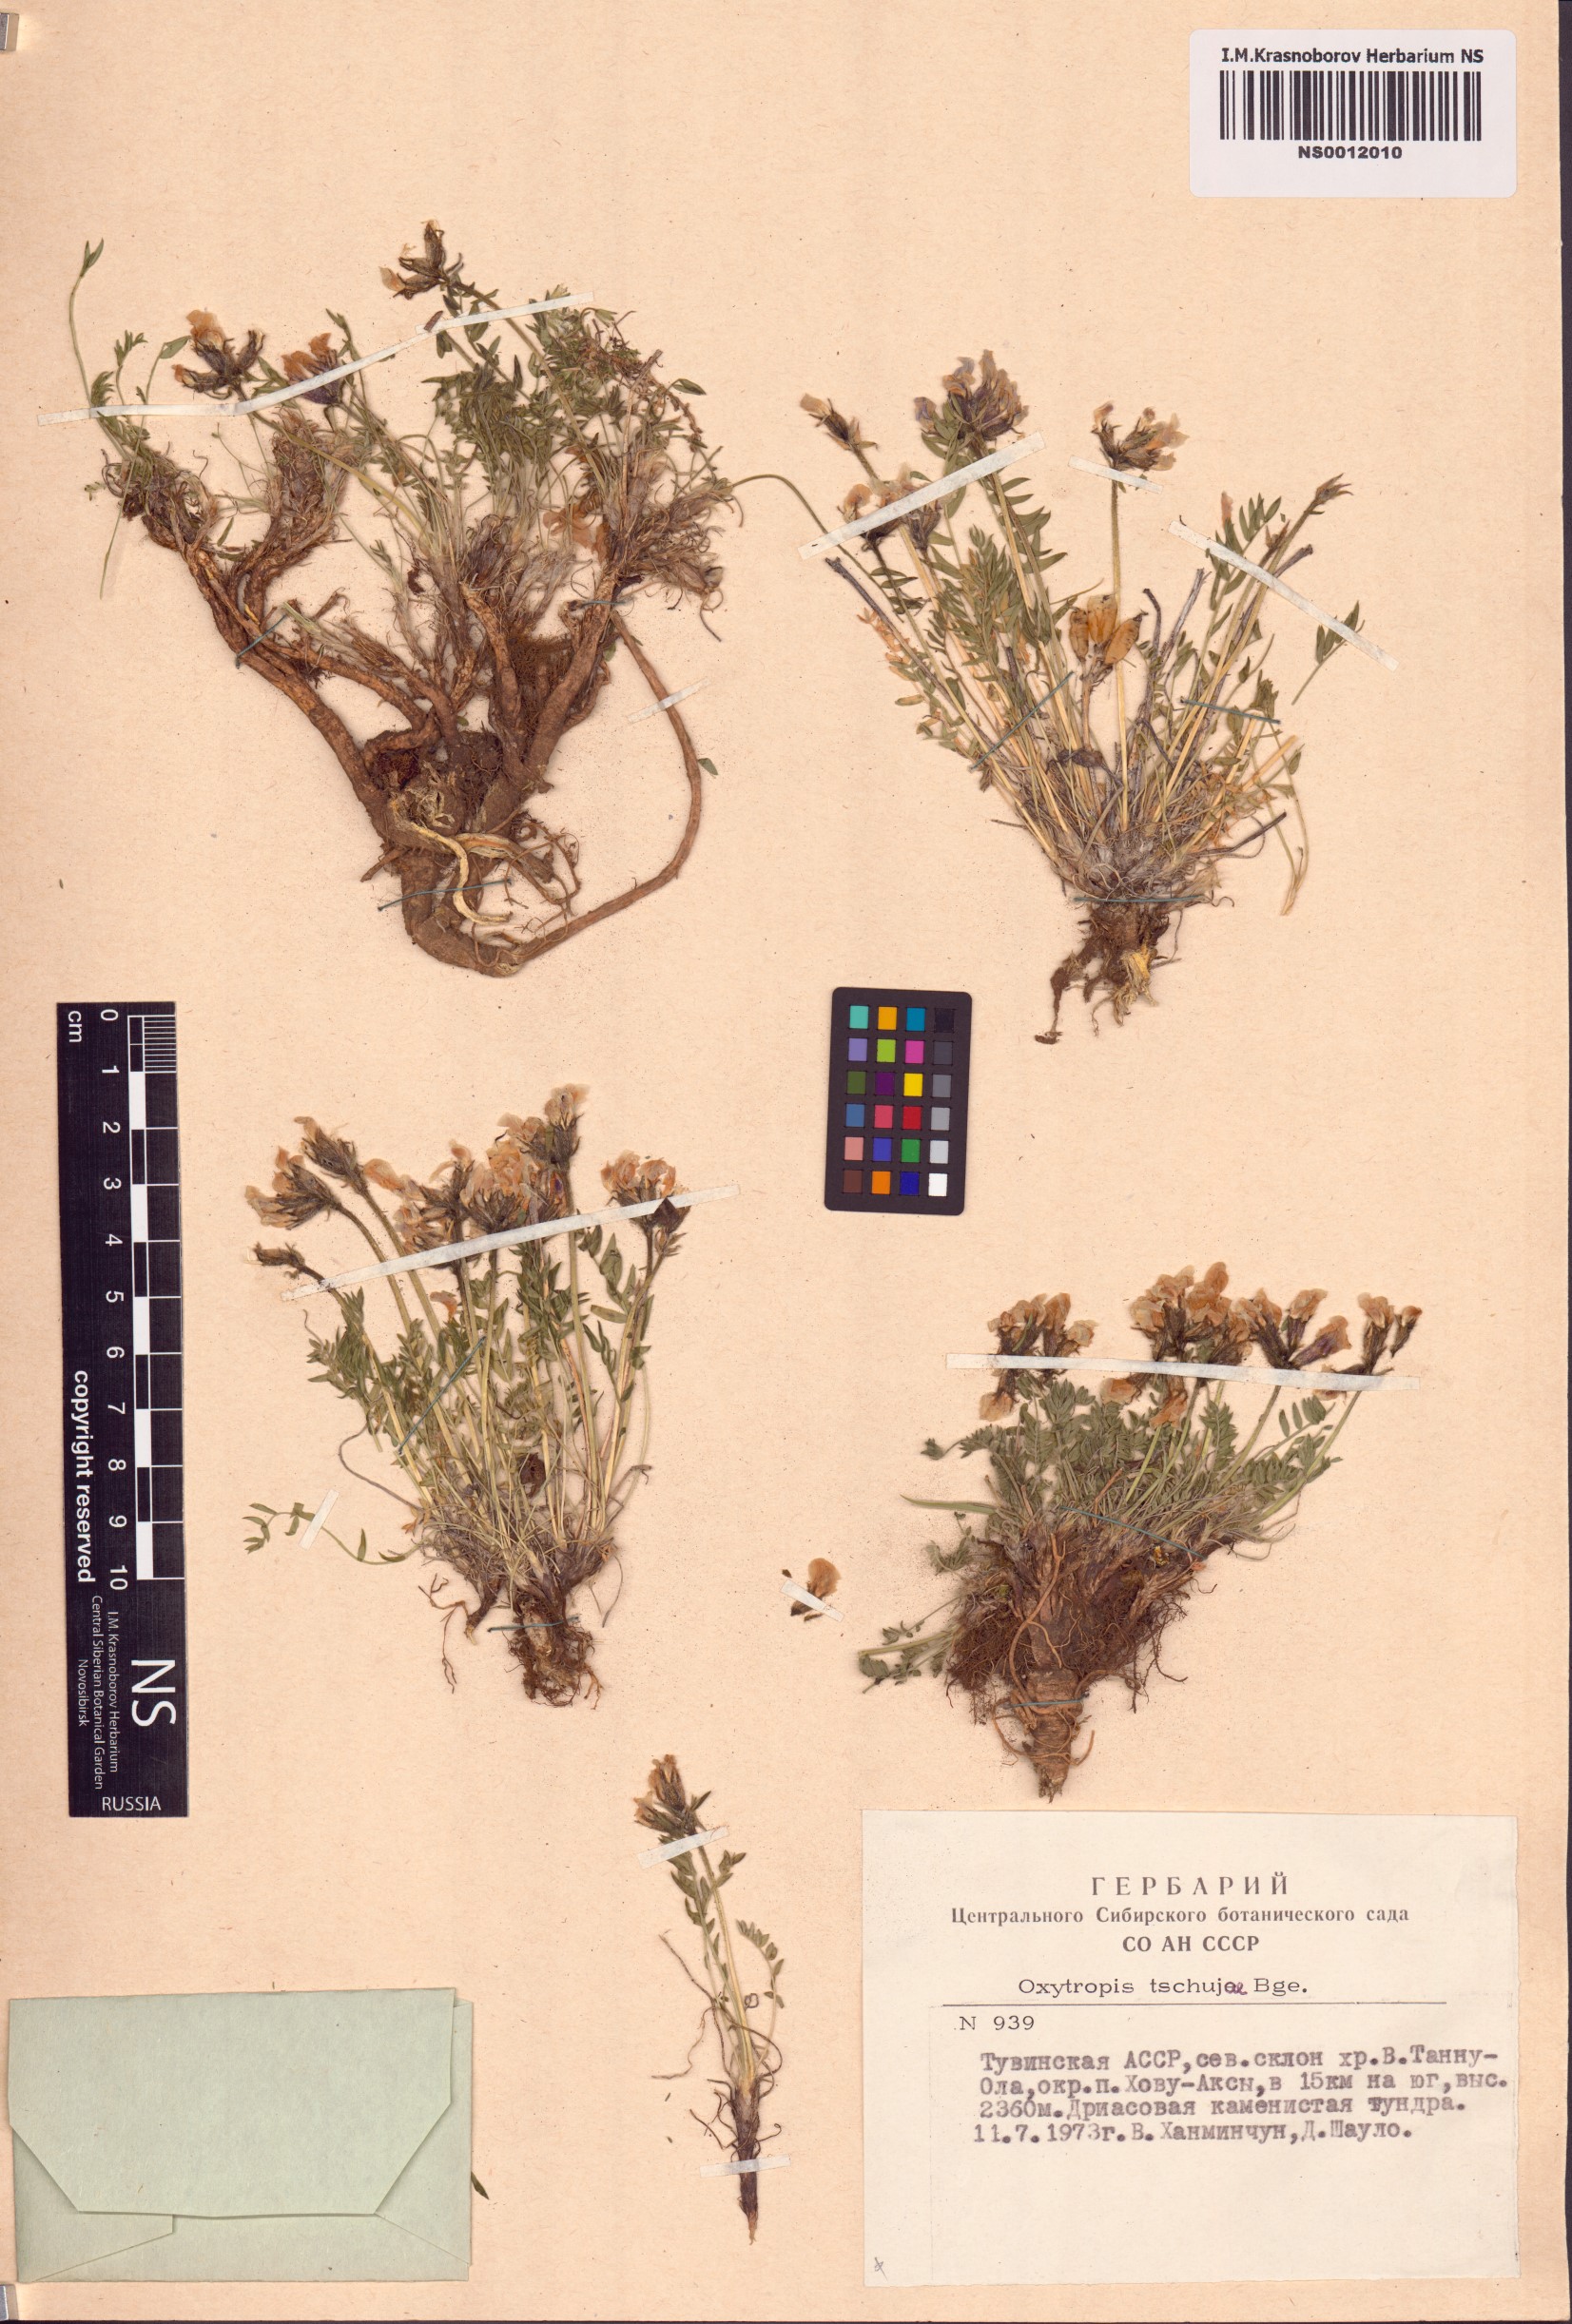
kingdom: Plantae
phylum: Tracheophyta
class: Magnoliopsida
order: Fabales
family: Fabaceae
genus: Oxytropis
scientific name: Oxytropis tschujae
